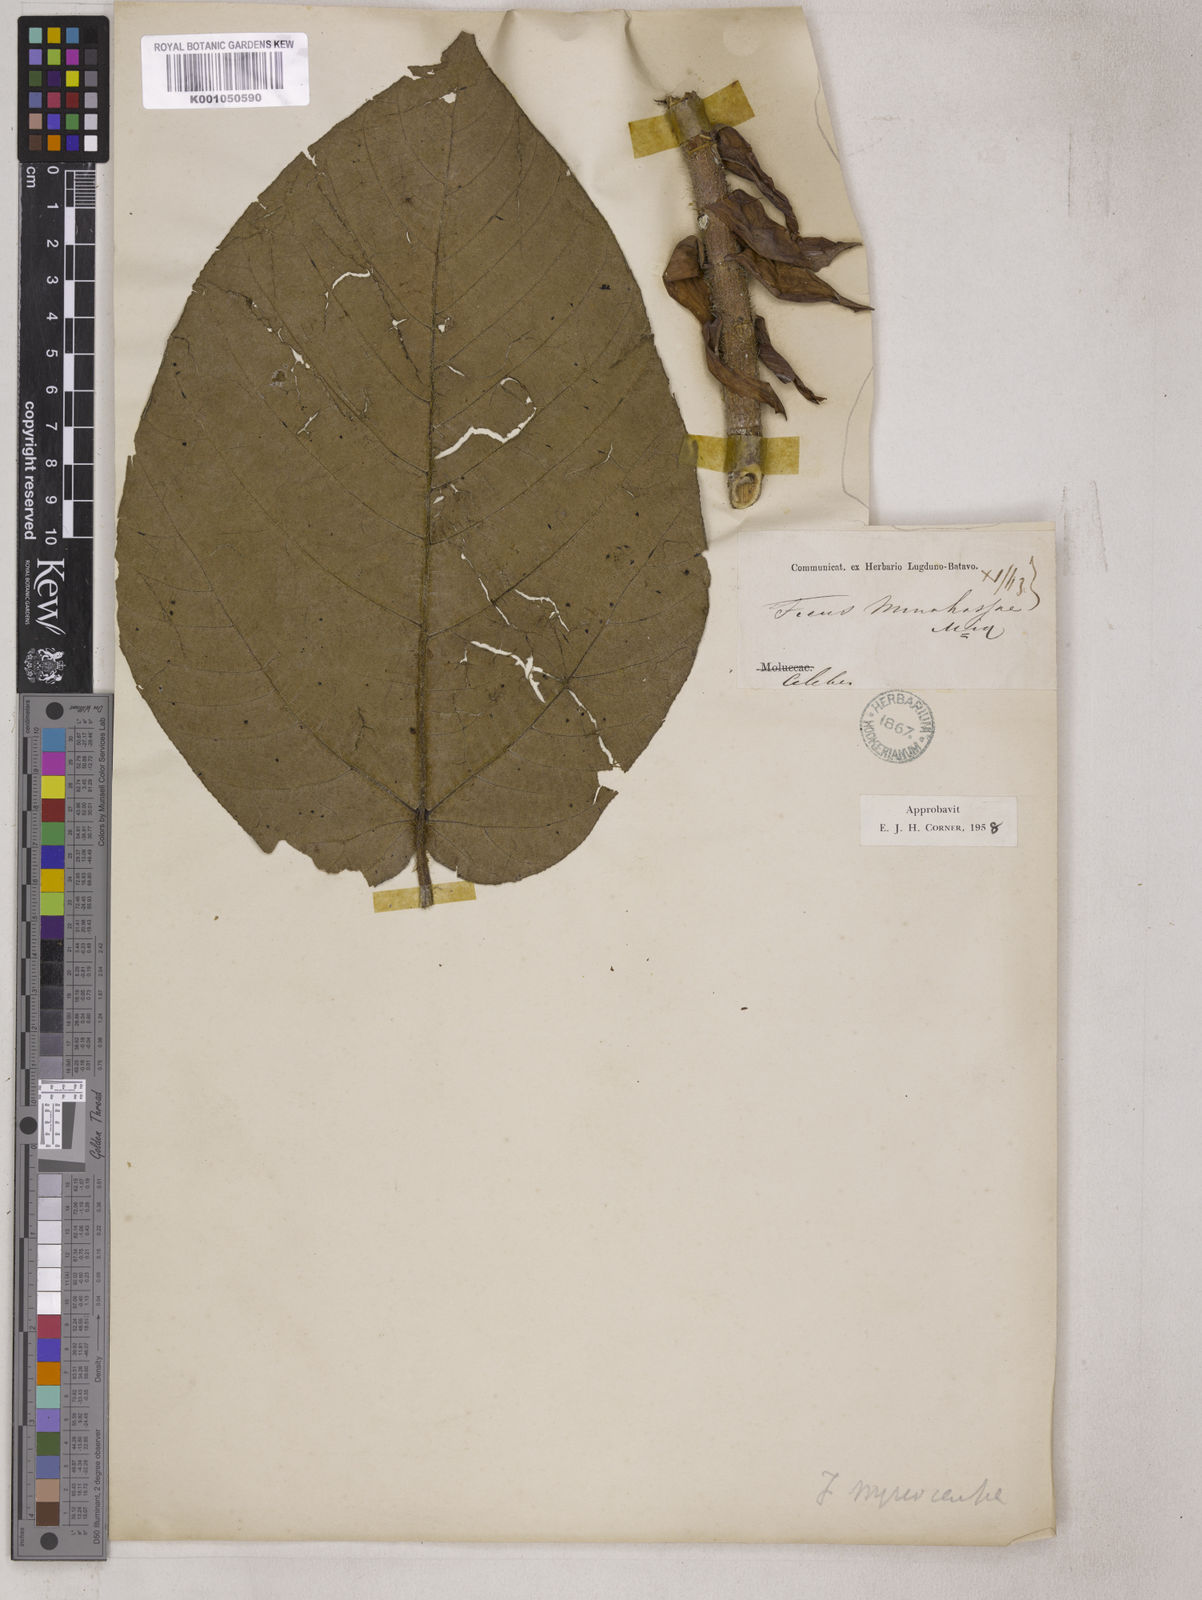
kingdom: Plantae
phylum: Tracheophyta
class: Magnoliopsida
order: Rosales
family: Moraceae
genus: Ficus
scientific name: Ficus minahassae
